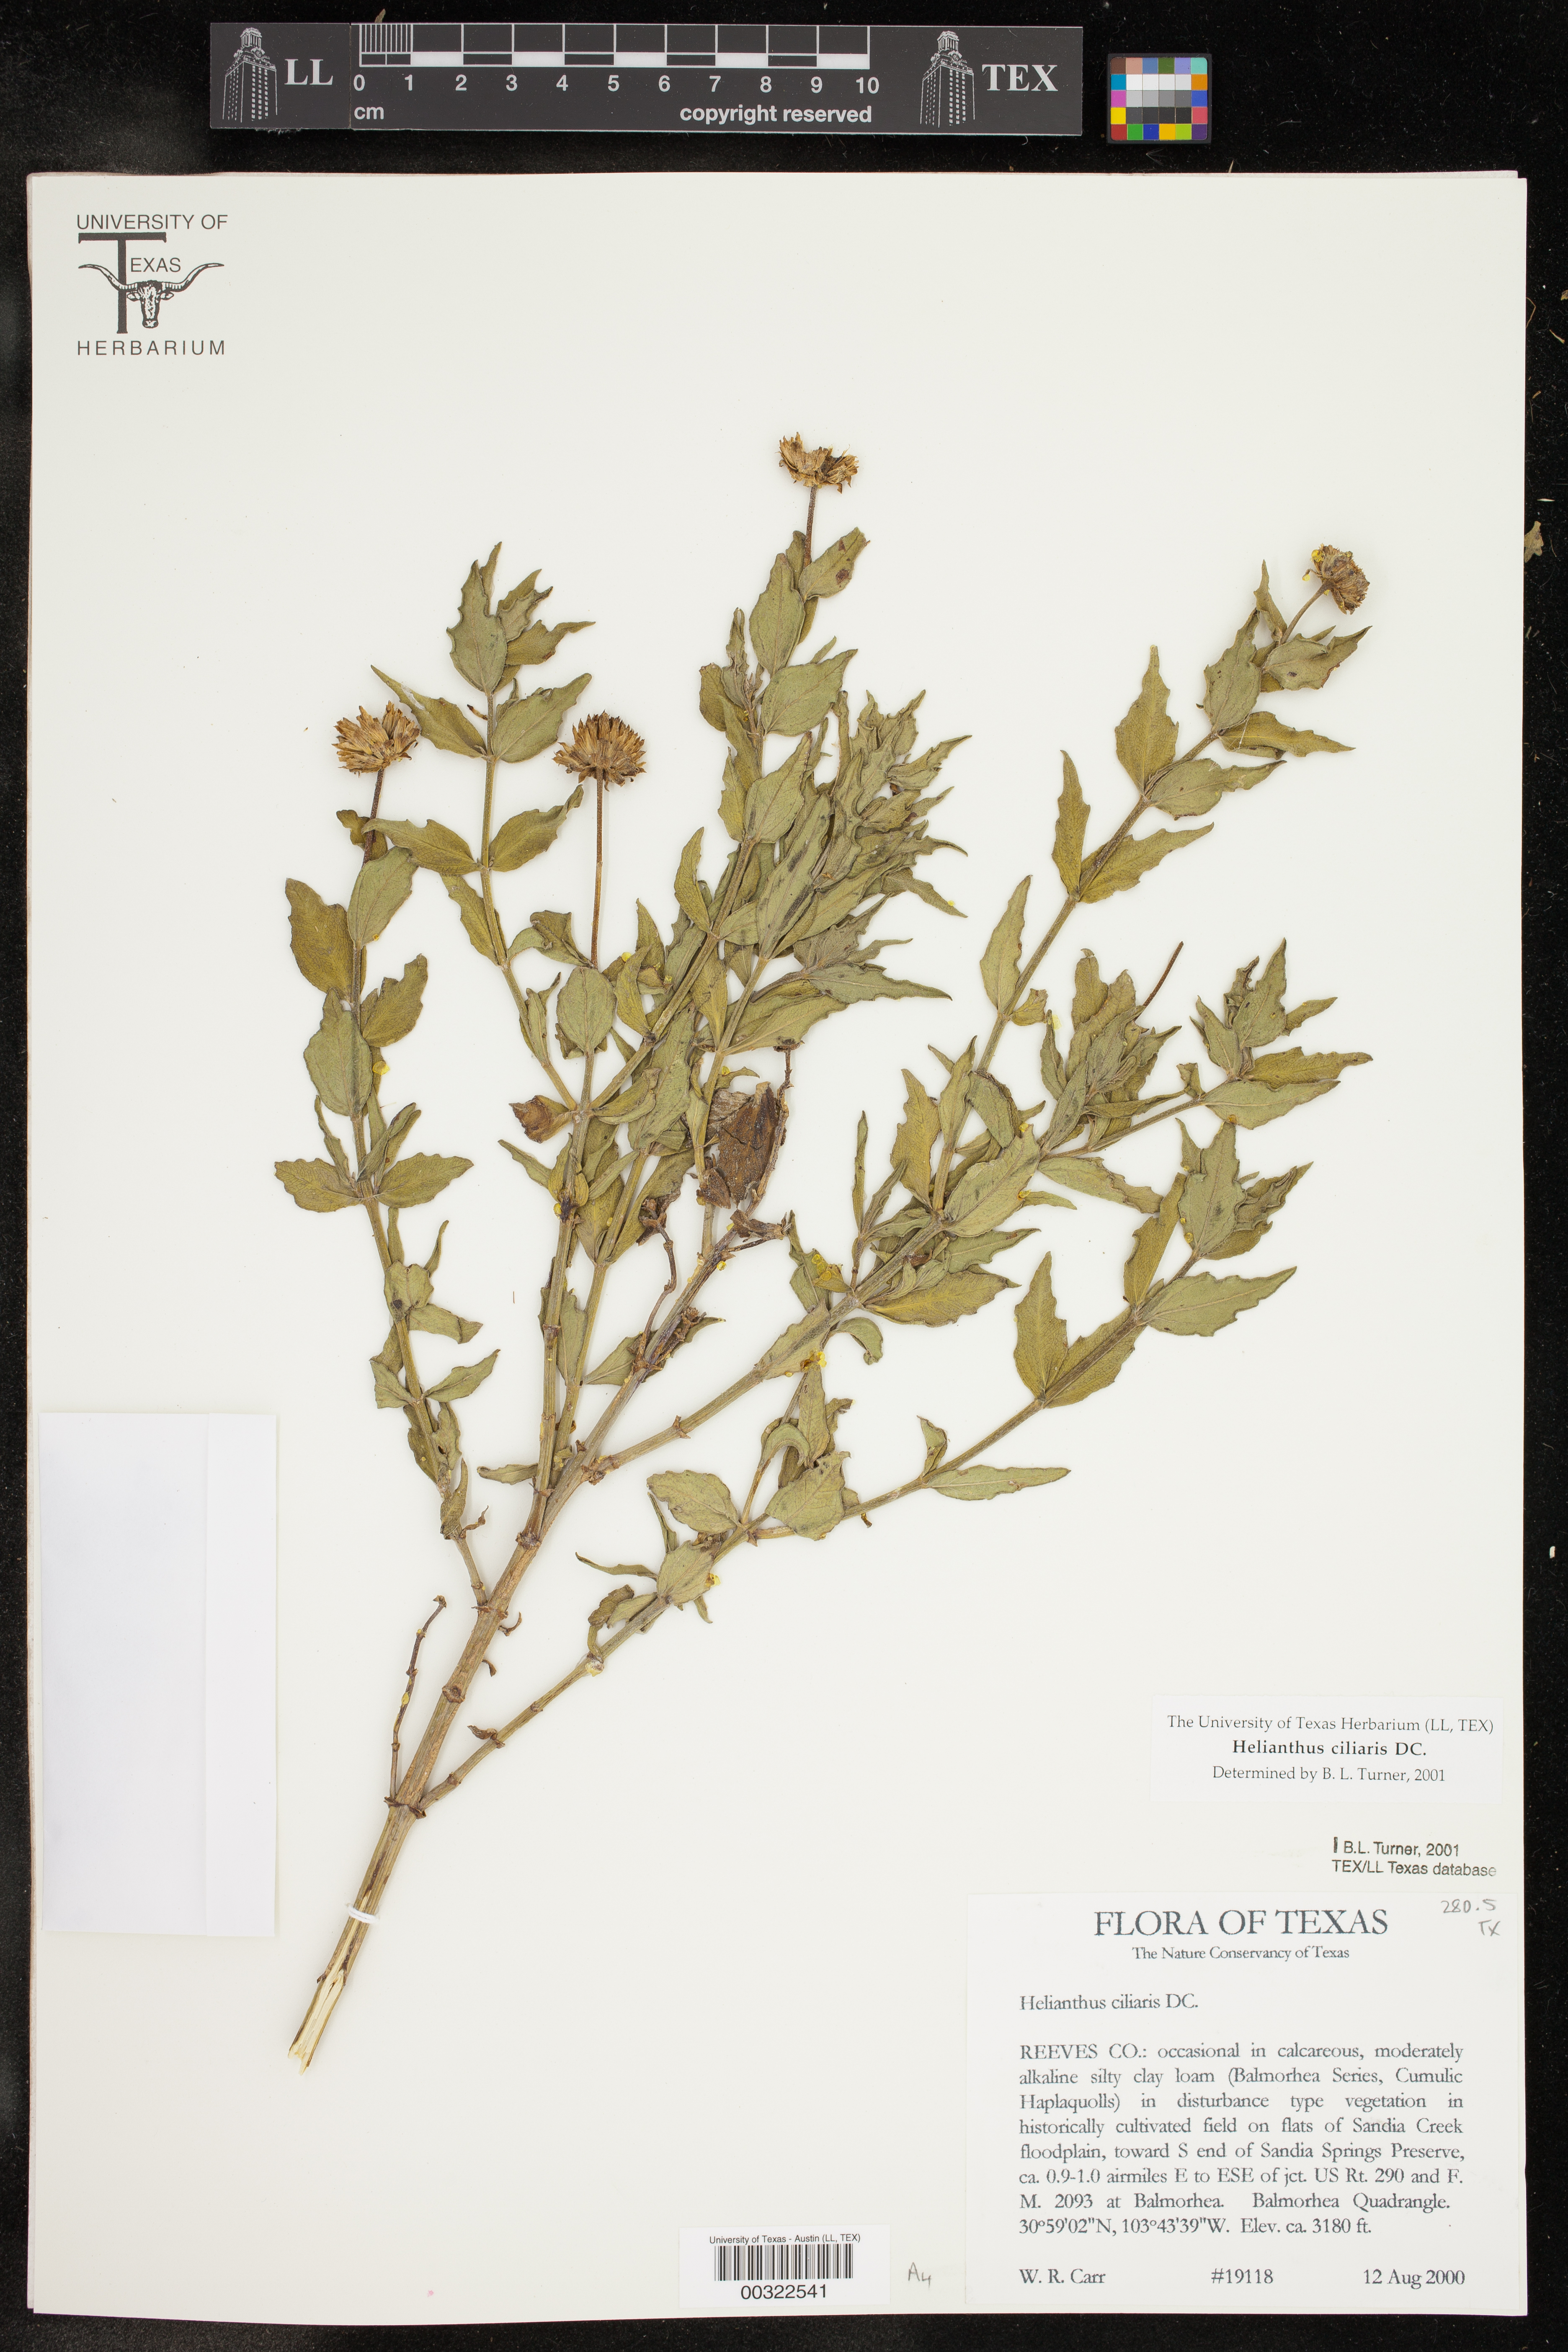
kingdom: Plantae
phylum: Tracheophyta
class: Magnoliopsida
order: Asterales
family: Asteraceae
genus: Helianthus
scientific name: Helianthus ciliaris
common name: Texas blueweed
